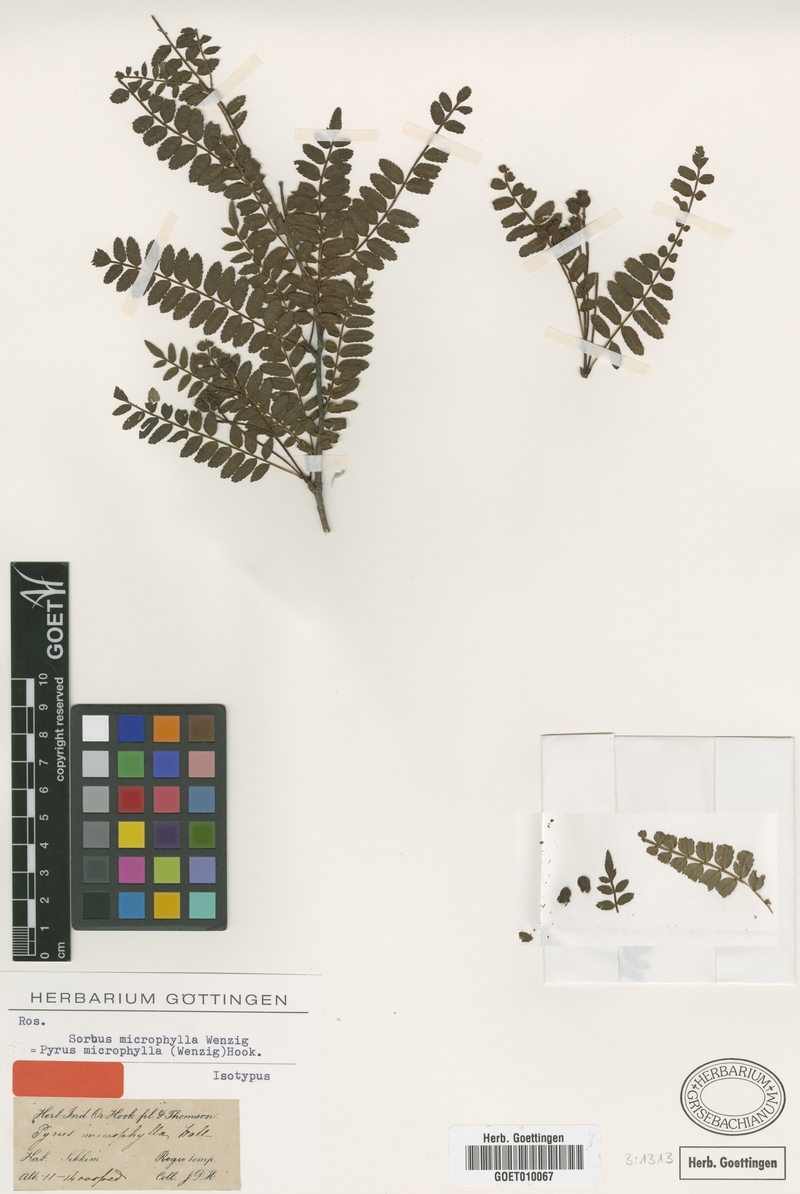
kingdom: Plantae
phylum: Tracheophyta
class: Magnoliopsida
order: Rosales
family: Rosaceae
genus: Sorbus
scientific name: Sorbus microphylla
